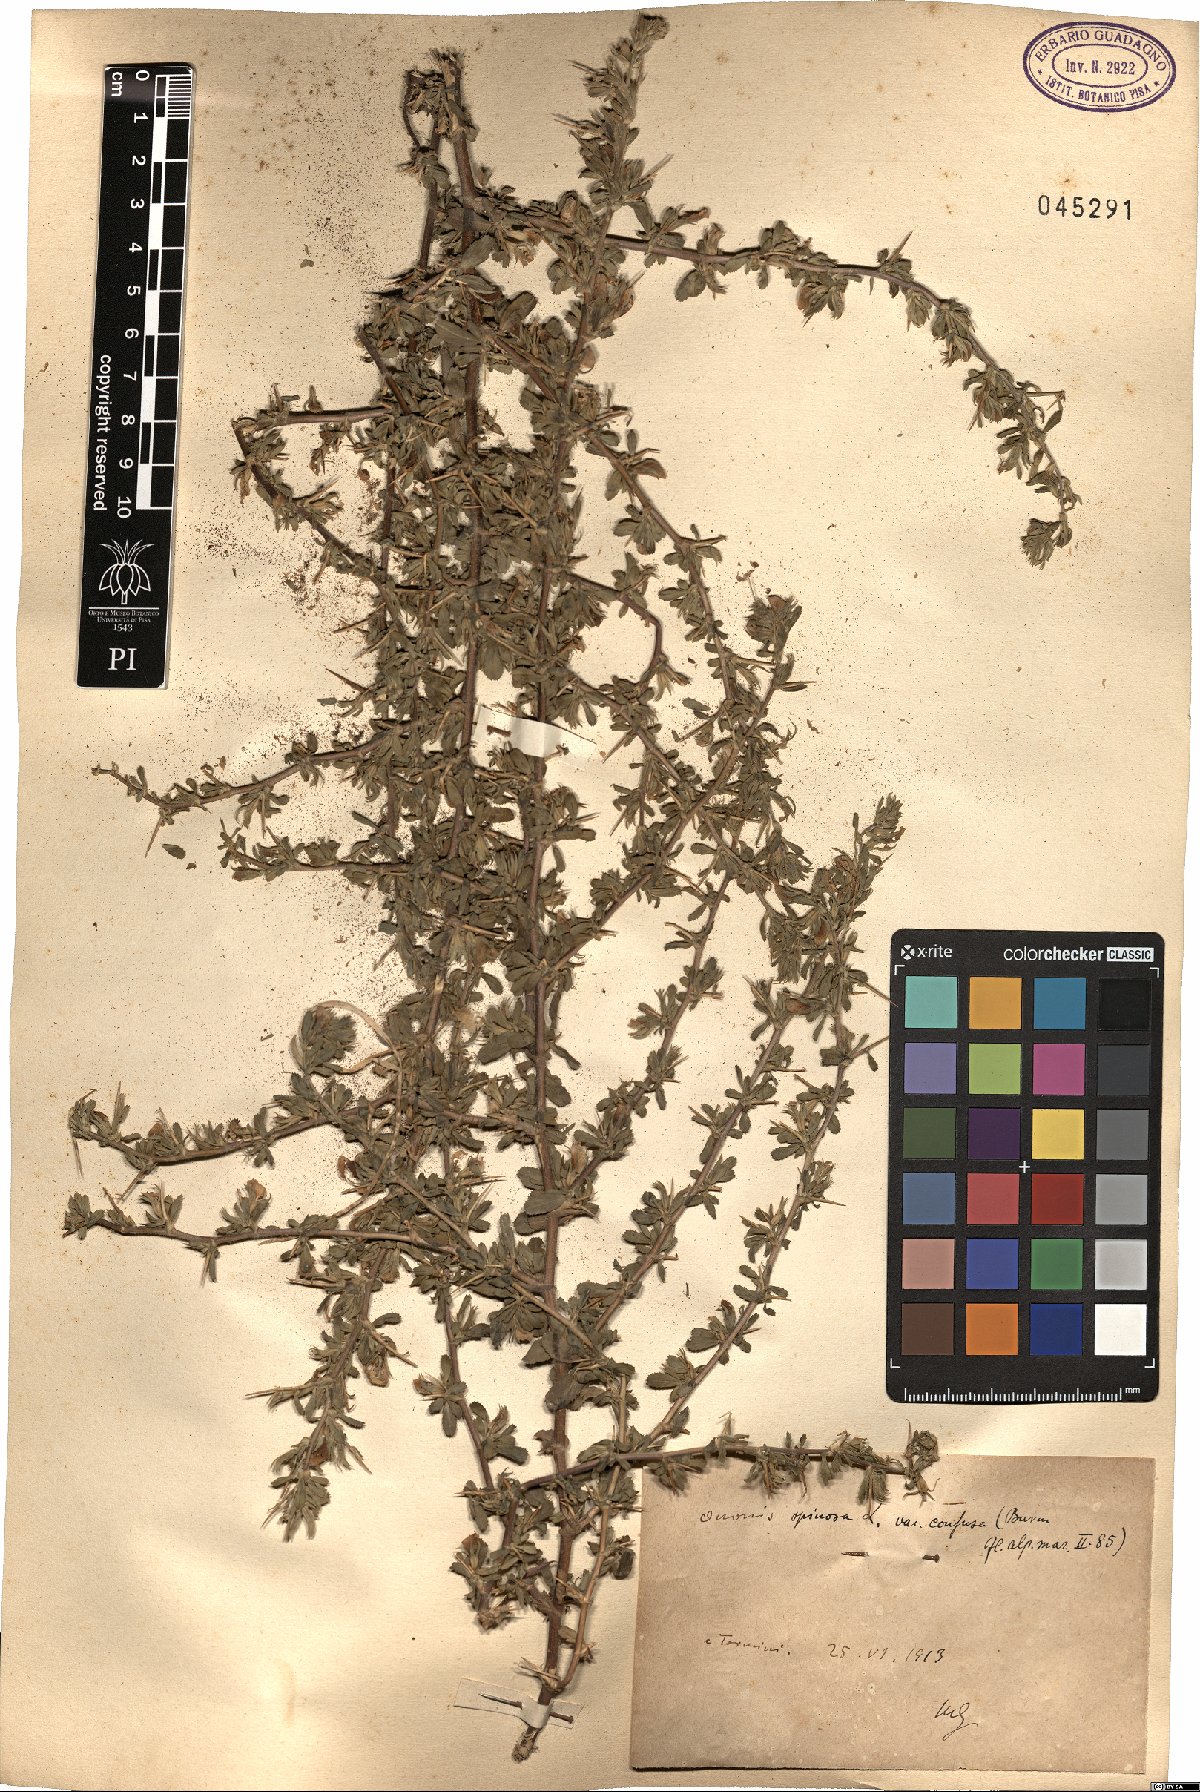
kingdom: Plantae
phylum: Tracheophyta
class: Magnoliopsida
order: Fabales
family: Fabaceae
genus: Ononis
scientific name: Ononis spinosa
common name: Spiny restharrow
